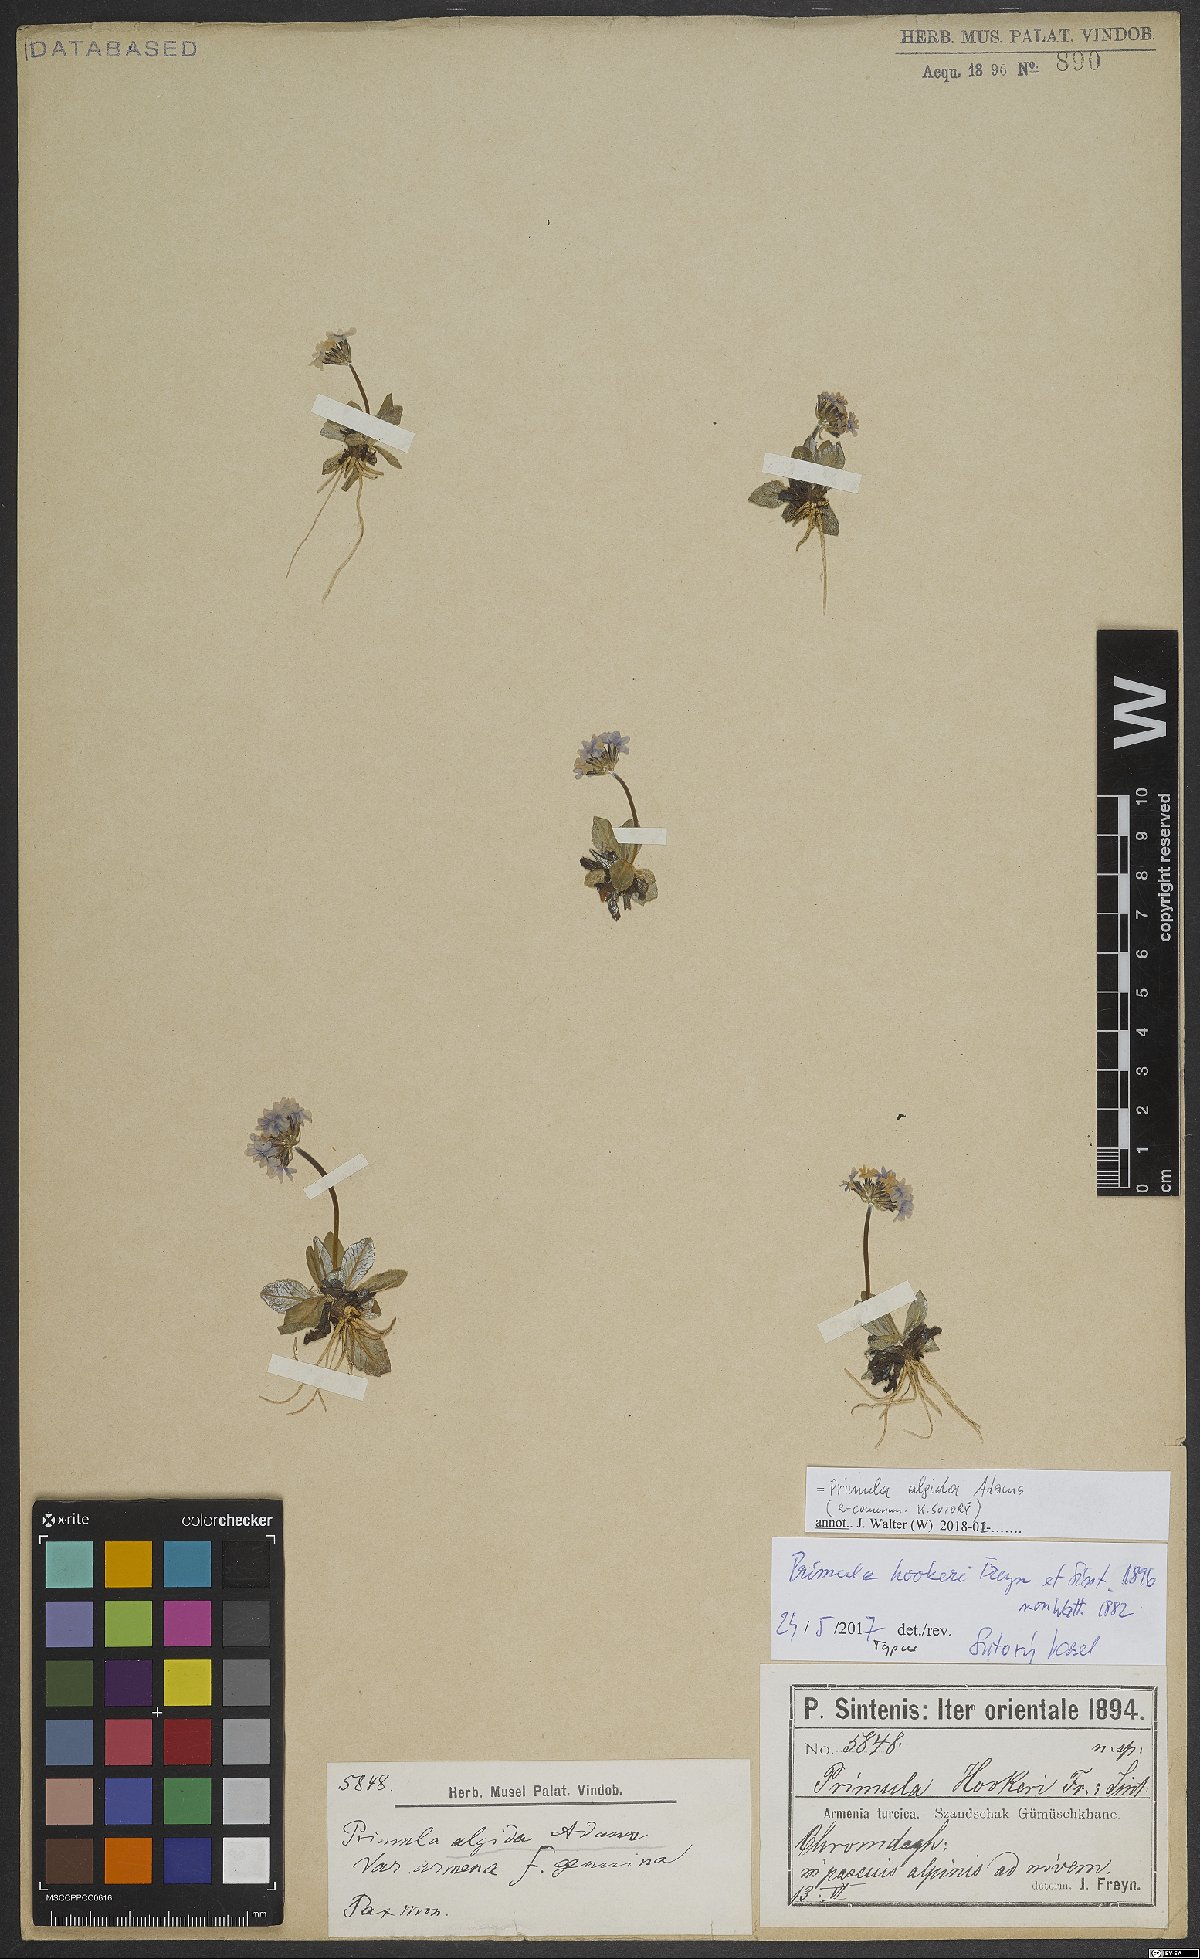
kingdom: Plantae
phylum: Tracheophyta
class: Magnoliopsida
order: Ericales
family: Primulaceae
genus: Primula
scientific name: Primula algida
